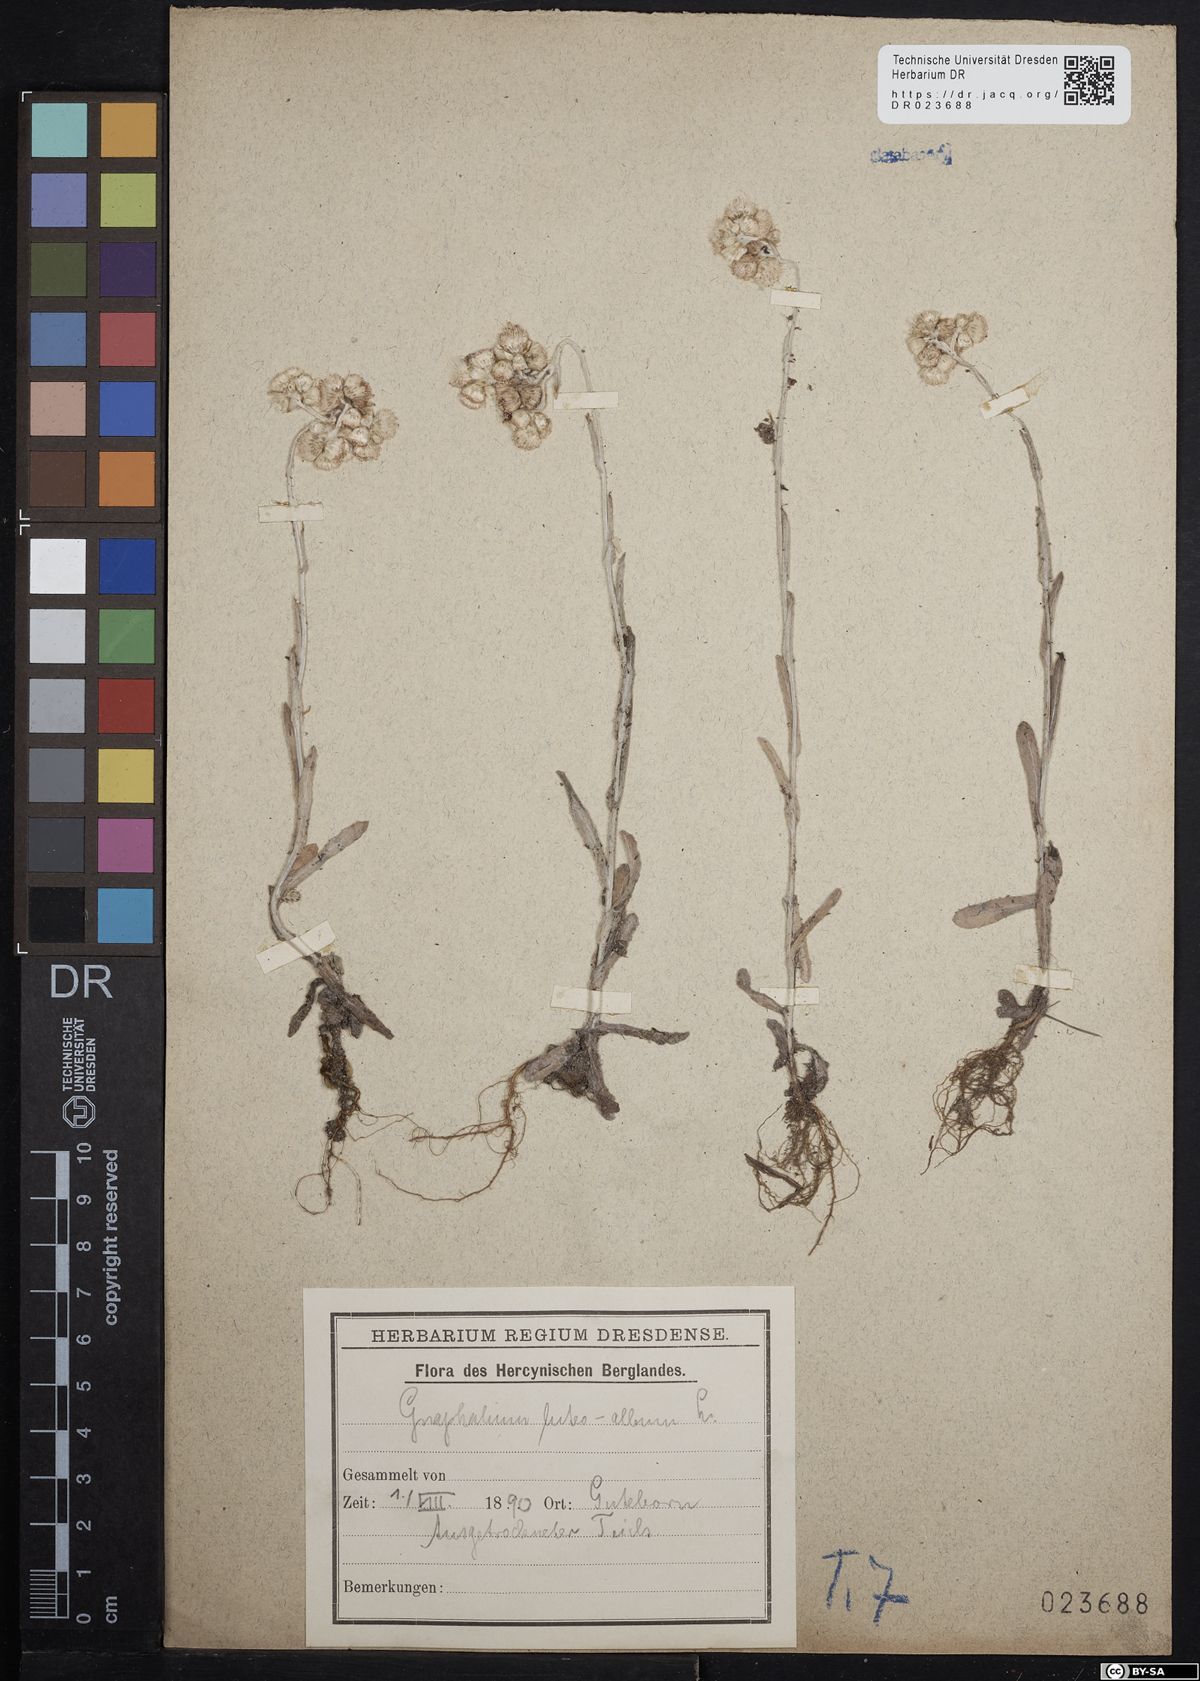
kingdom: Plantae
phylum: Tracheophyta
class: Magnoliopsida
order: Asterales
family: Asteraceae
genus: Helichrysum
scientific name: Helichrysum luteoalbum
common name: Daisy
